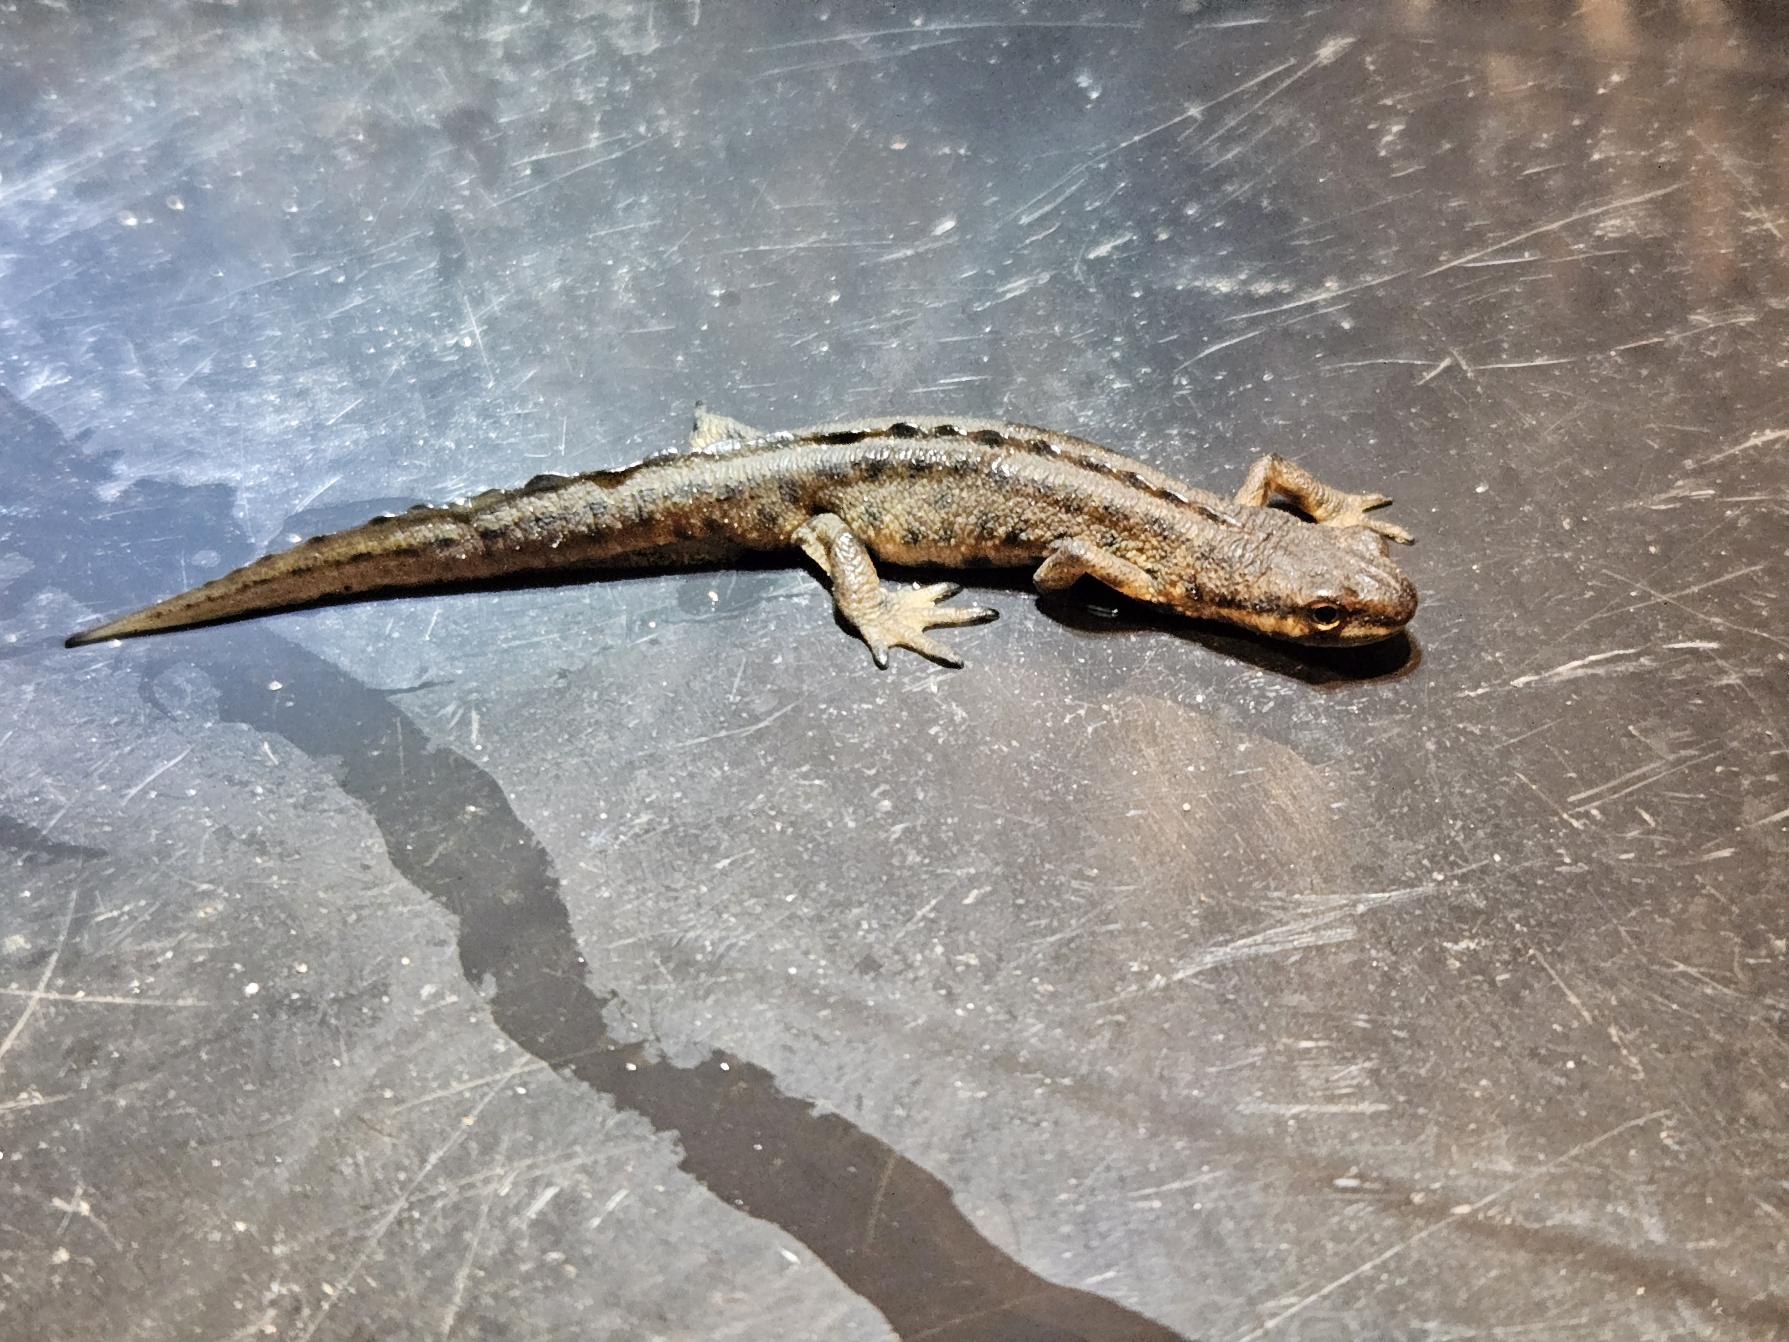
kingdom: Animalia
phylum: Chordata
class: Amphibia
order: Caudata
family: Salamandridae
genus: Lissotriton
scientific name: Lissotriton vulgaris
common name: Lille vandsalamander
